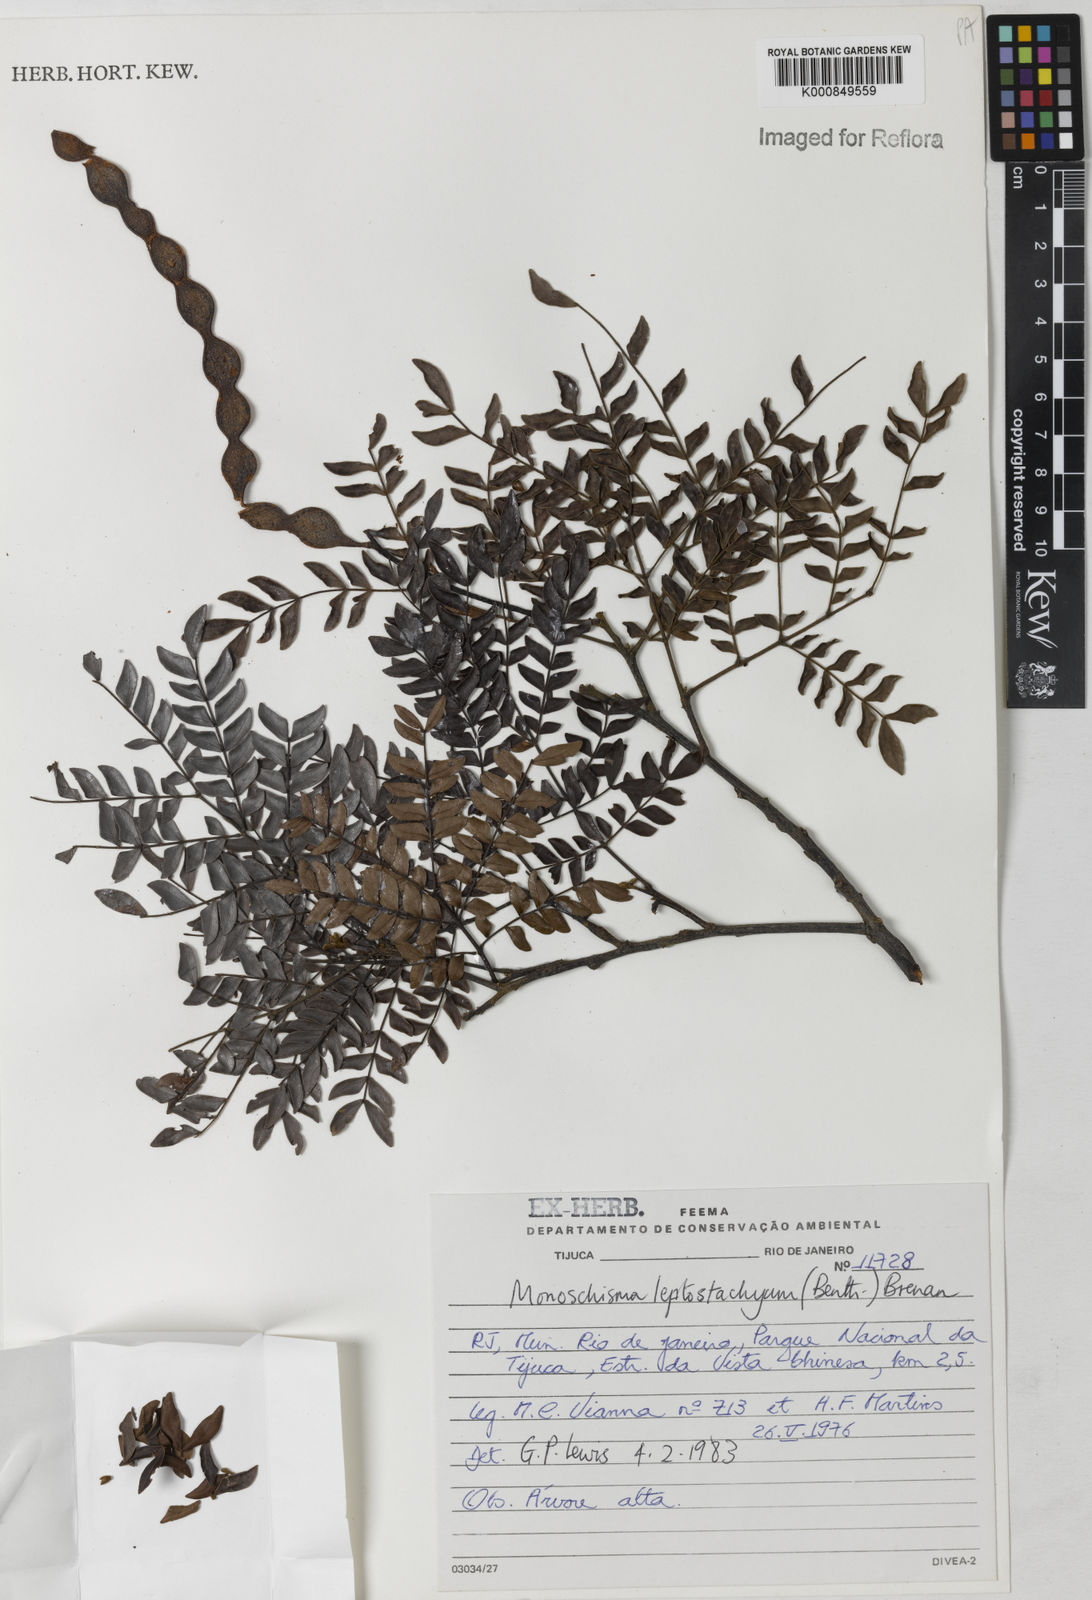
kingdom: Plantae
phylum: Tracheophyta
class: Magnoliopsida
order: Fabales
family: Fabaceae
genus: Pseudopiptadenia
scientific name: Pseudopiptadenia leptostachya
